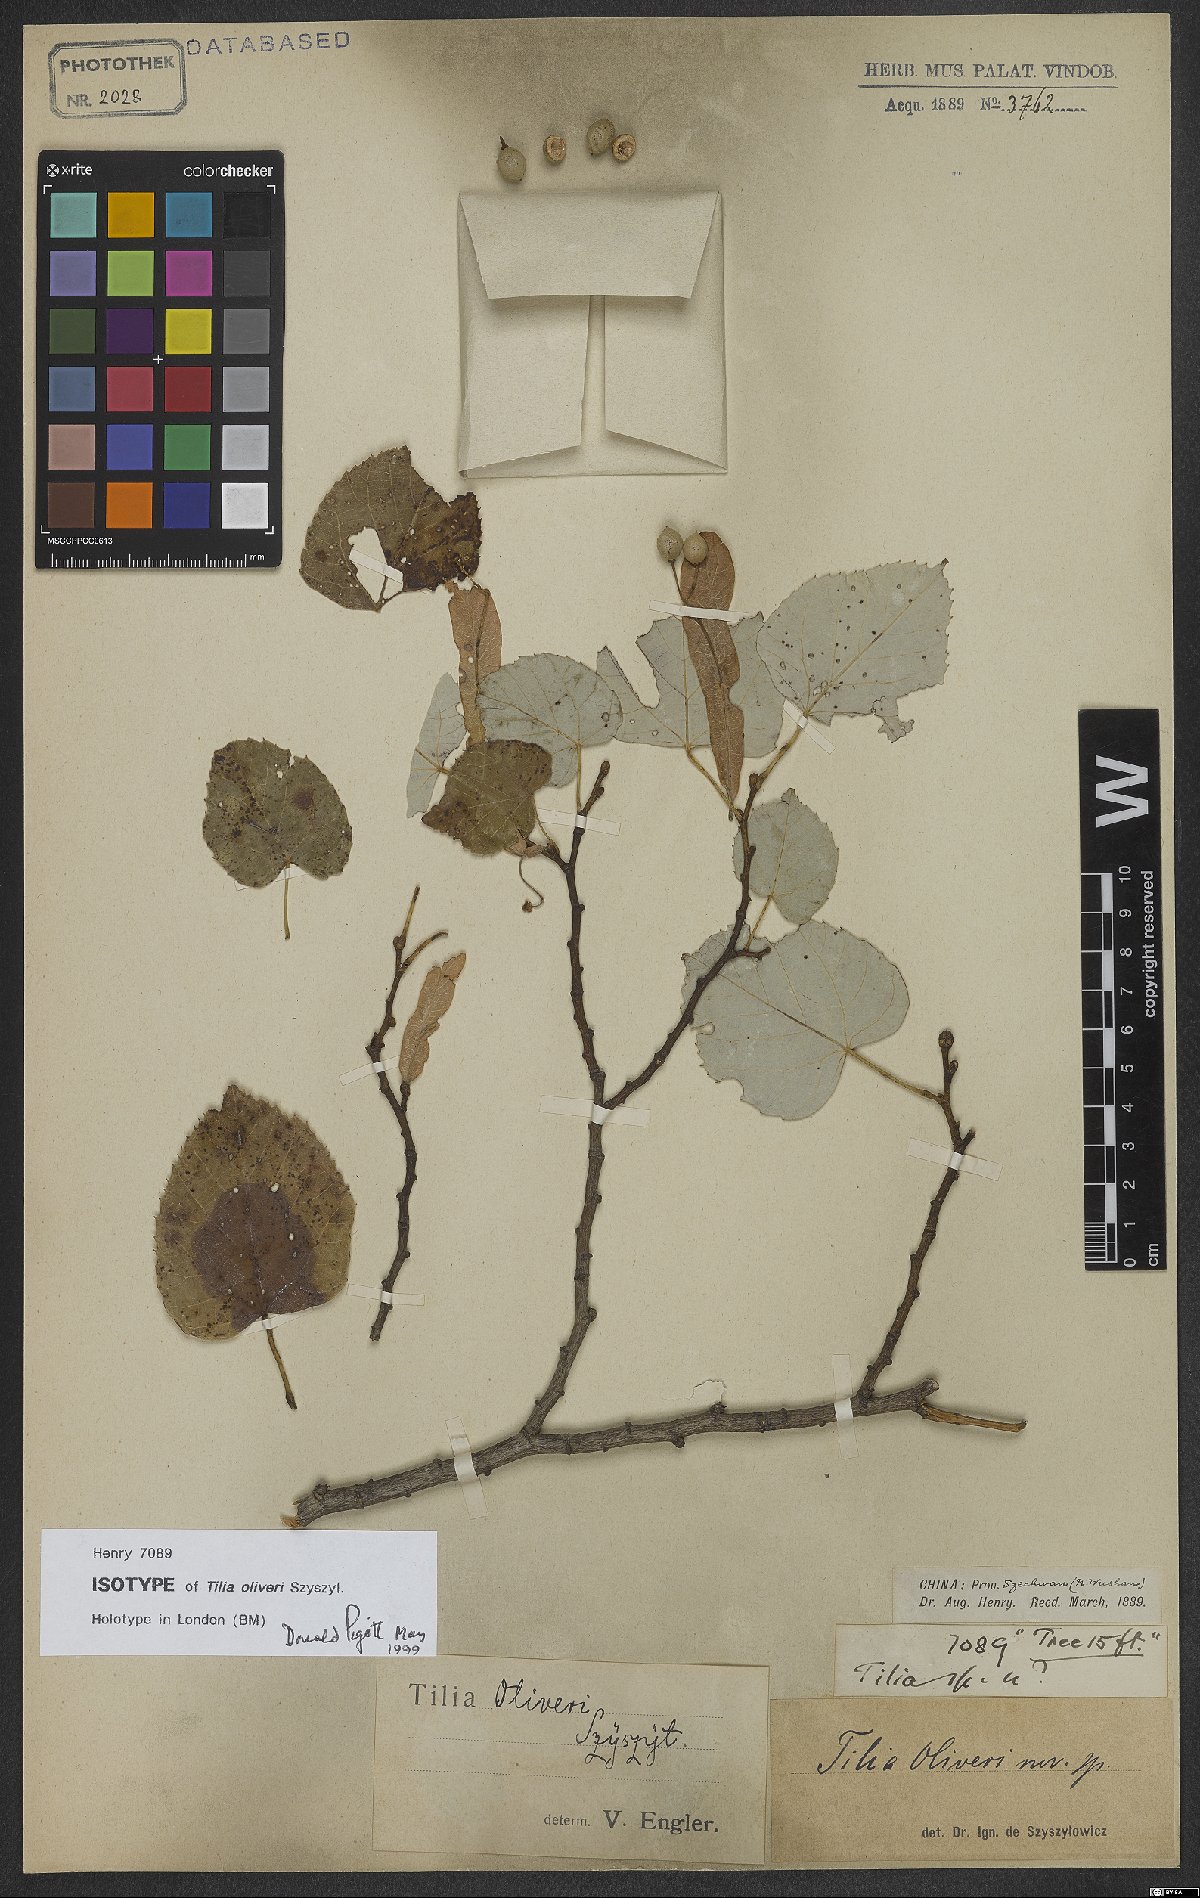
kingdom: Plantae
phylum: Tracheophyta
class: Magnoliopsida
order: Malvales
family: Malvaceae
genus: Tilia
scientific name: Tilia oliveri
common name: Oliver's lime
